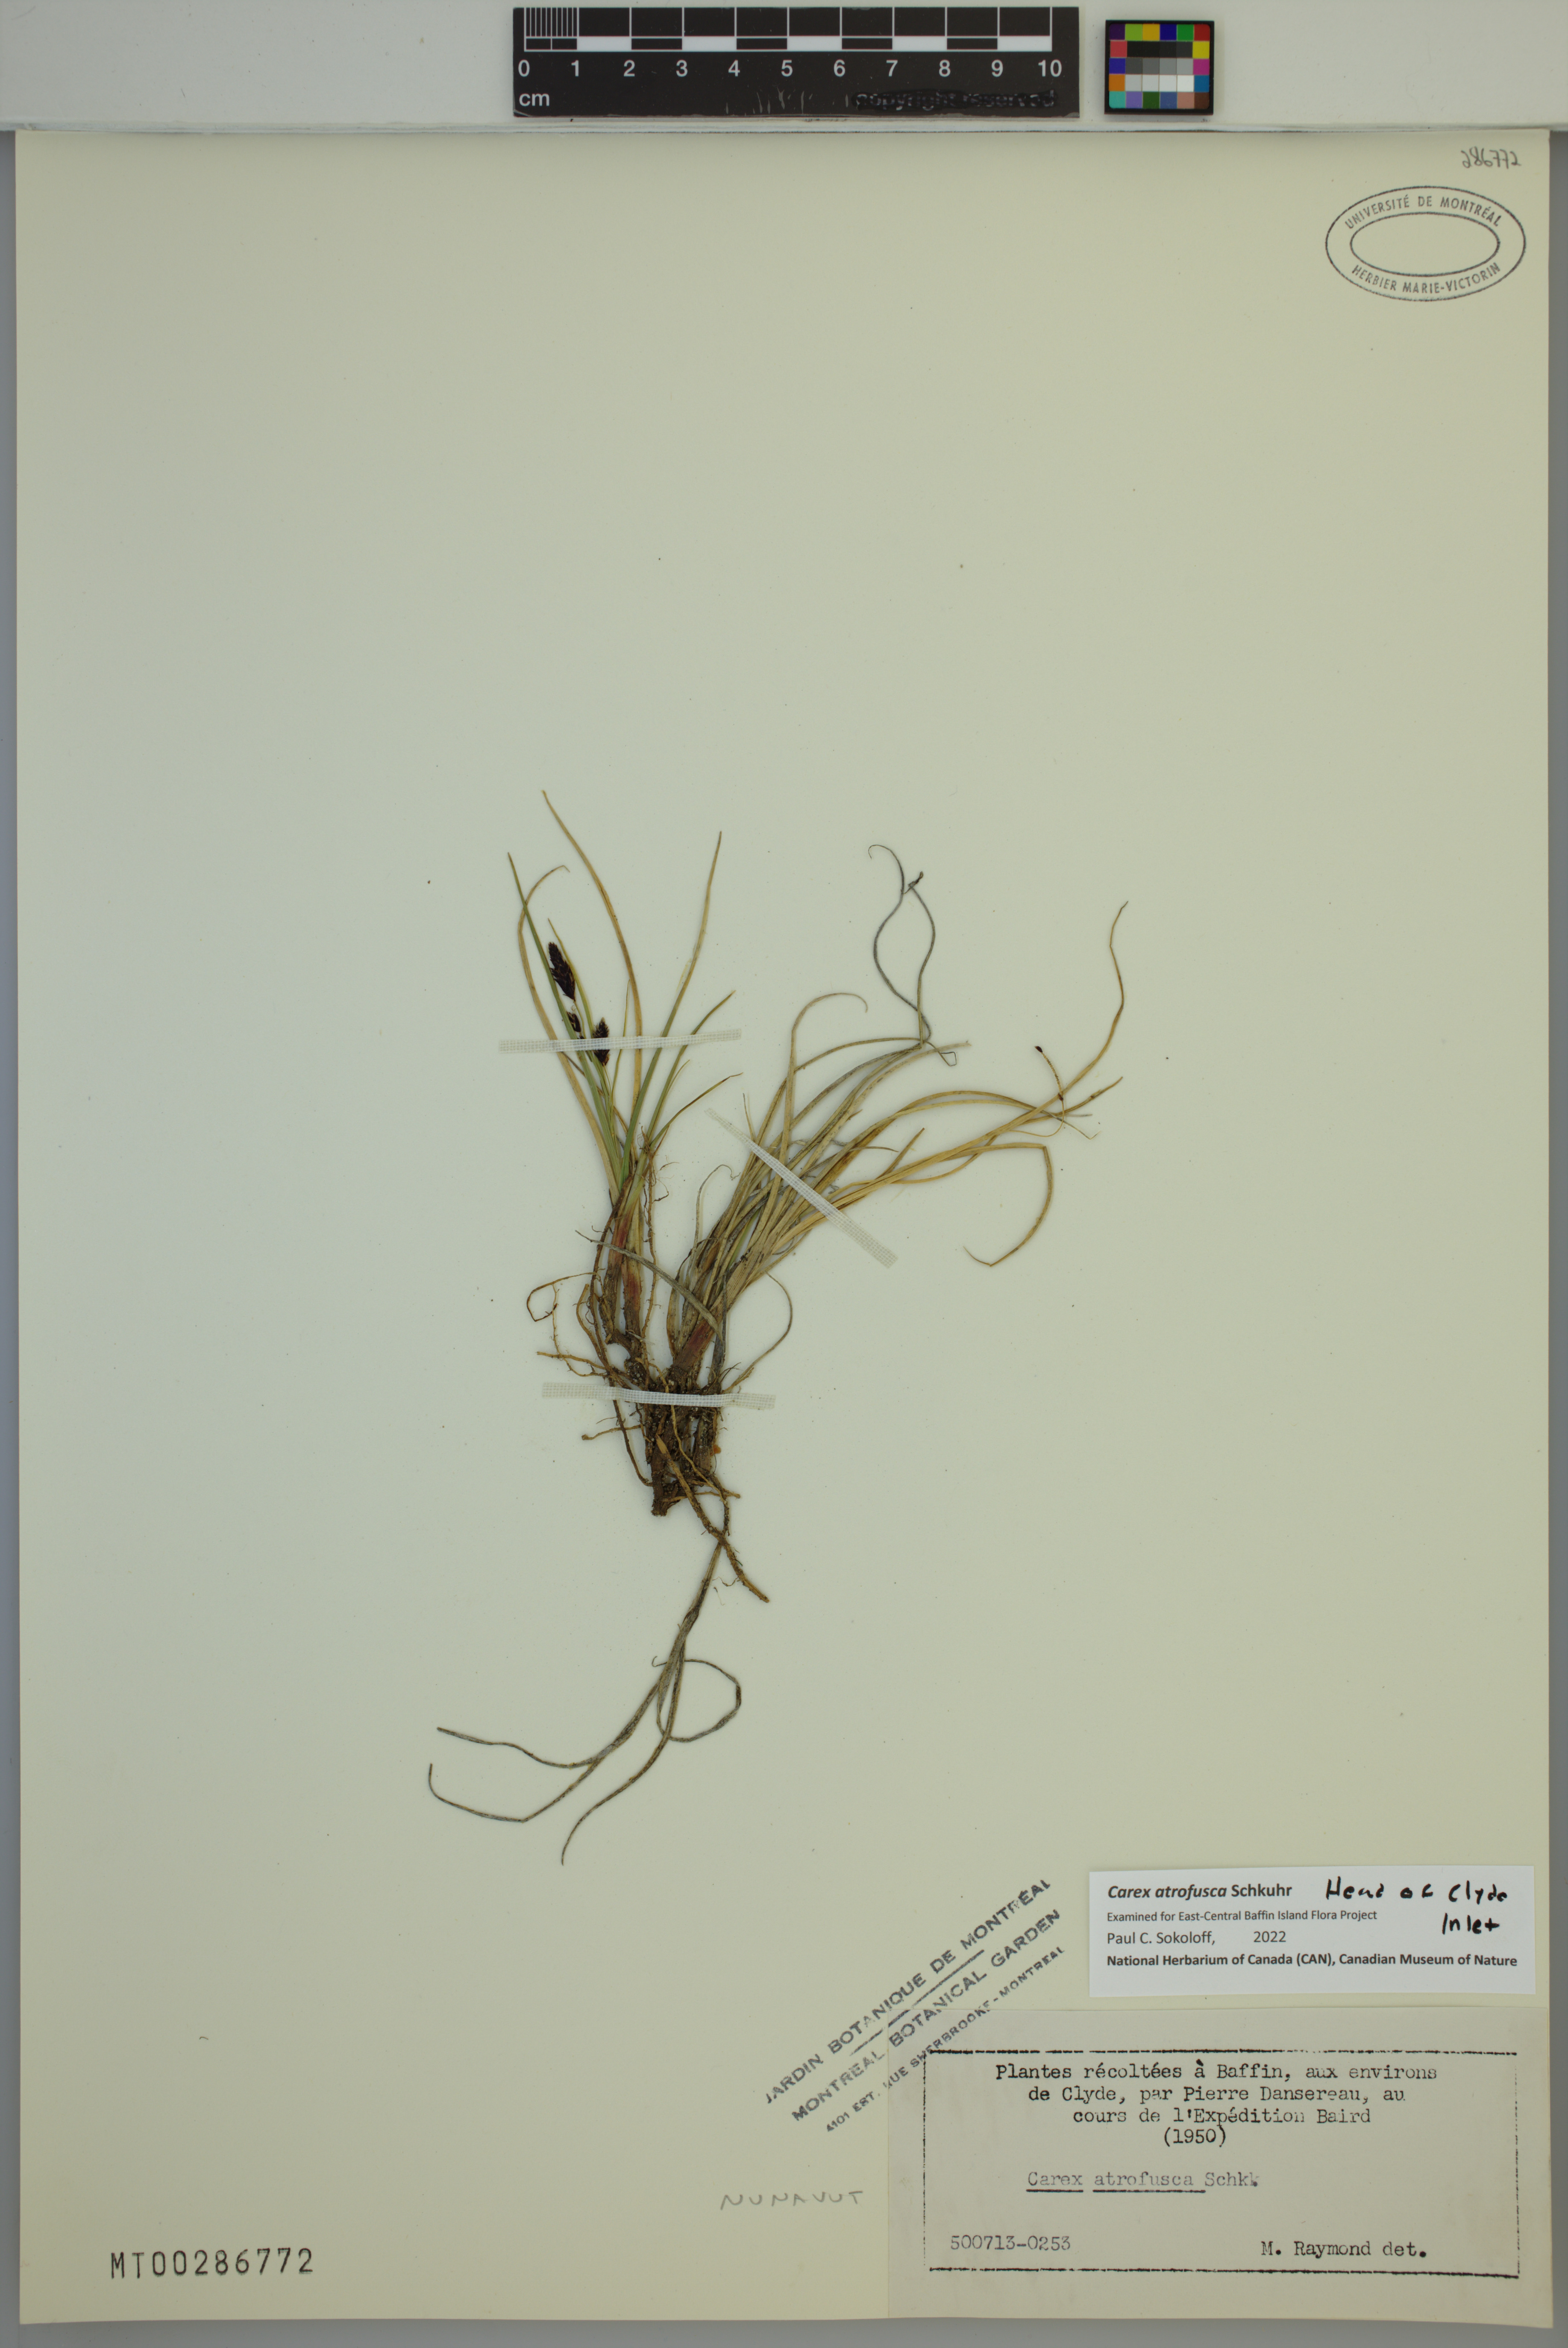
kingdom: Plantae
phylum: Tracheophyta
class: Liliopsida
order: Poales
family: Cyperaceae
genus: Carex
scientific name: Carex atrofusca
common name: Scorched alpine-sedge
